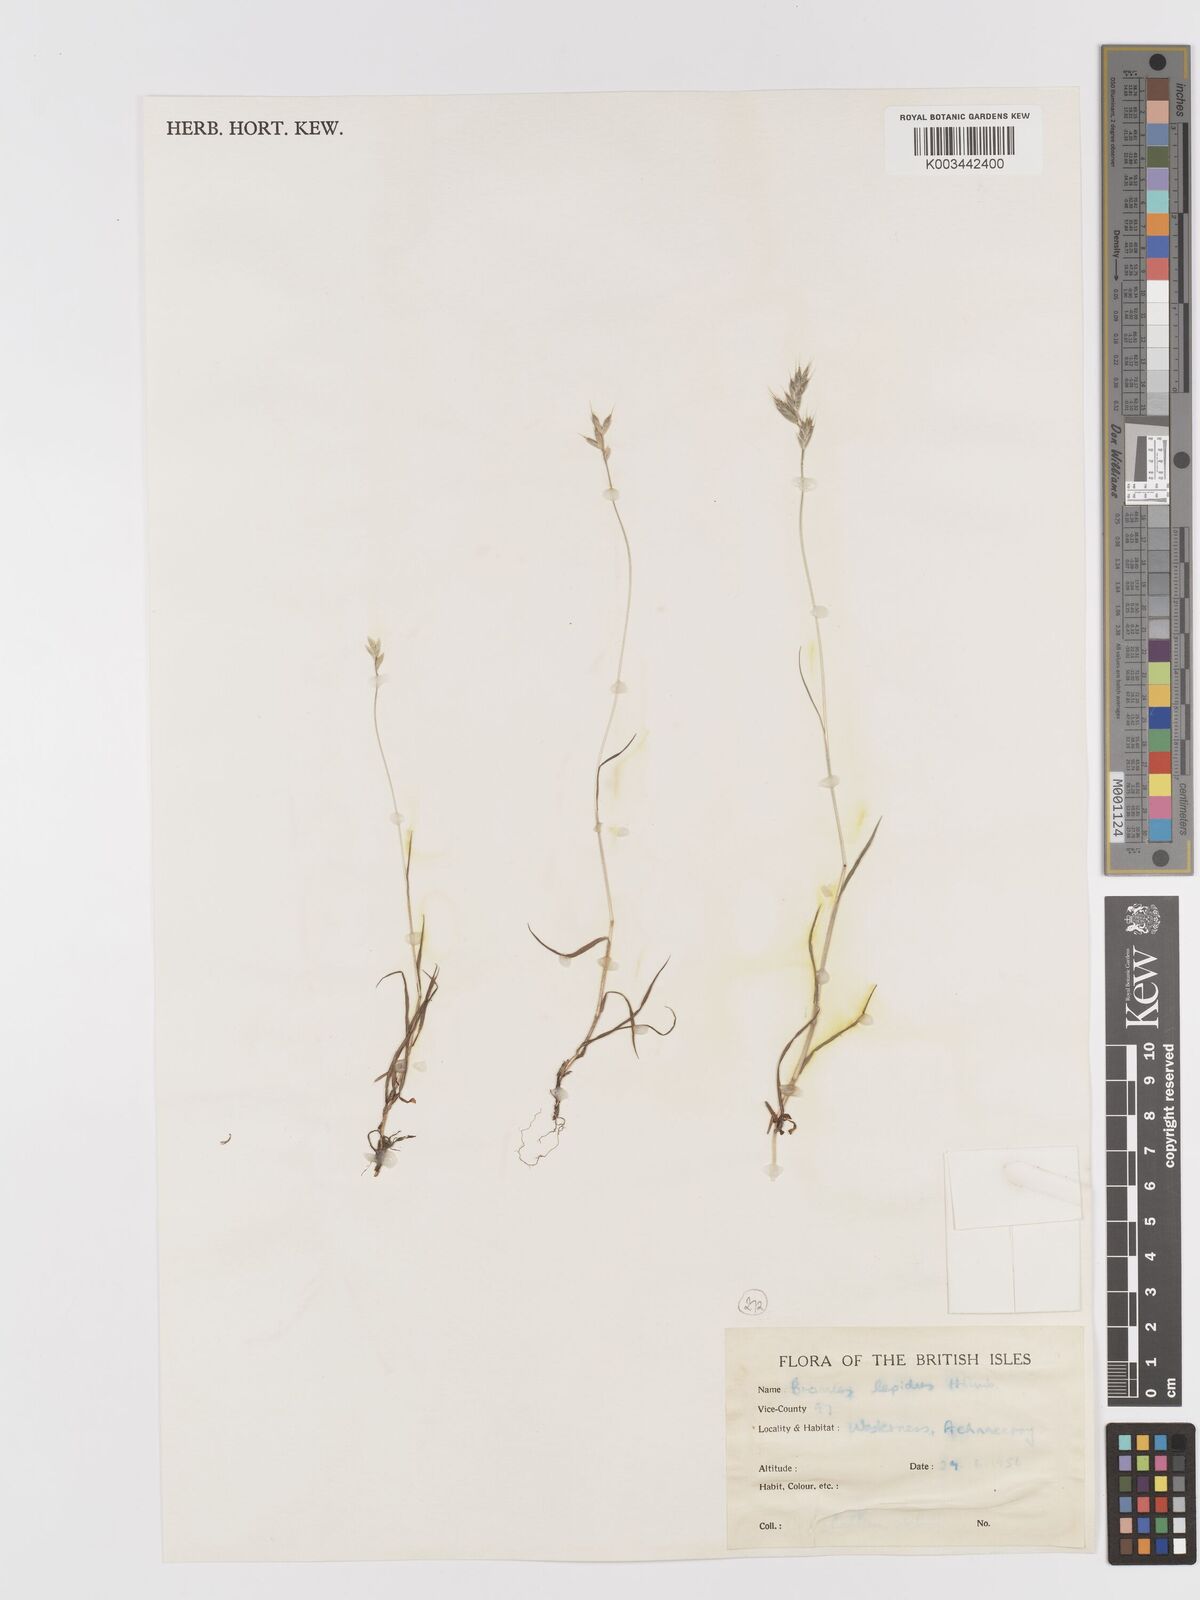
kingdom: Plantae
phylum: Tracheophyta
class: Liliopsida
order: Poales
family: Poaceae
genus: Bromus
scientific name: Bromus lepidus
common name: Slender soft-brome
